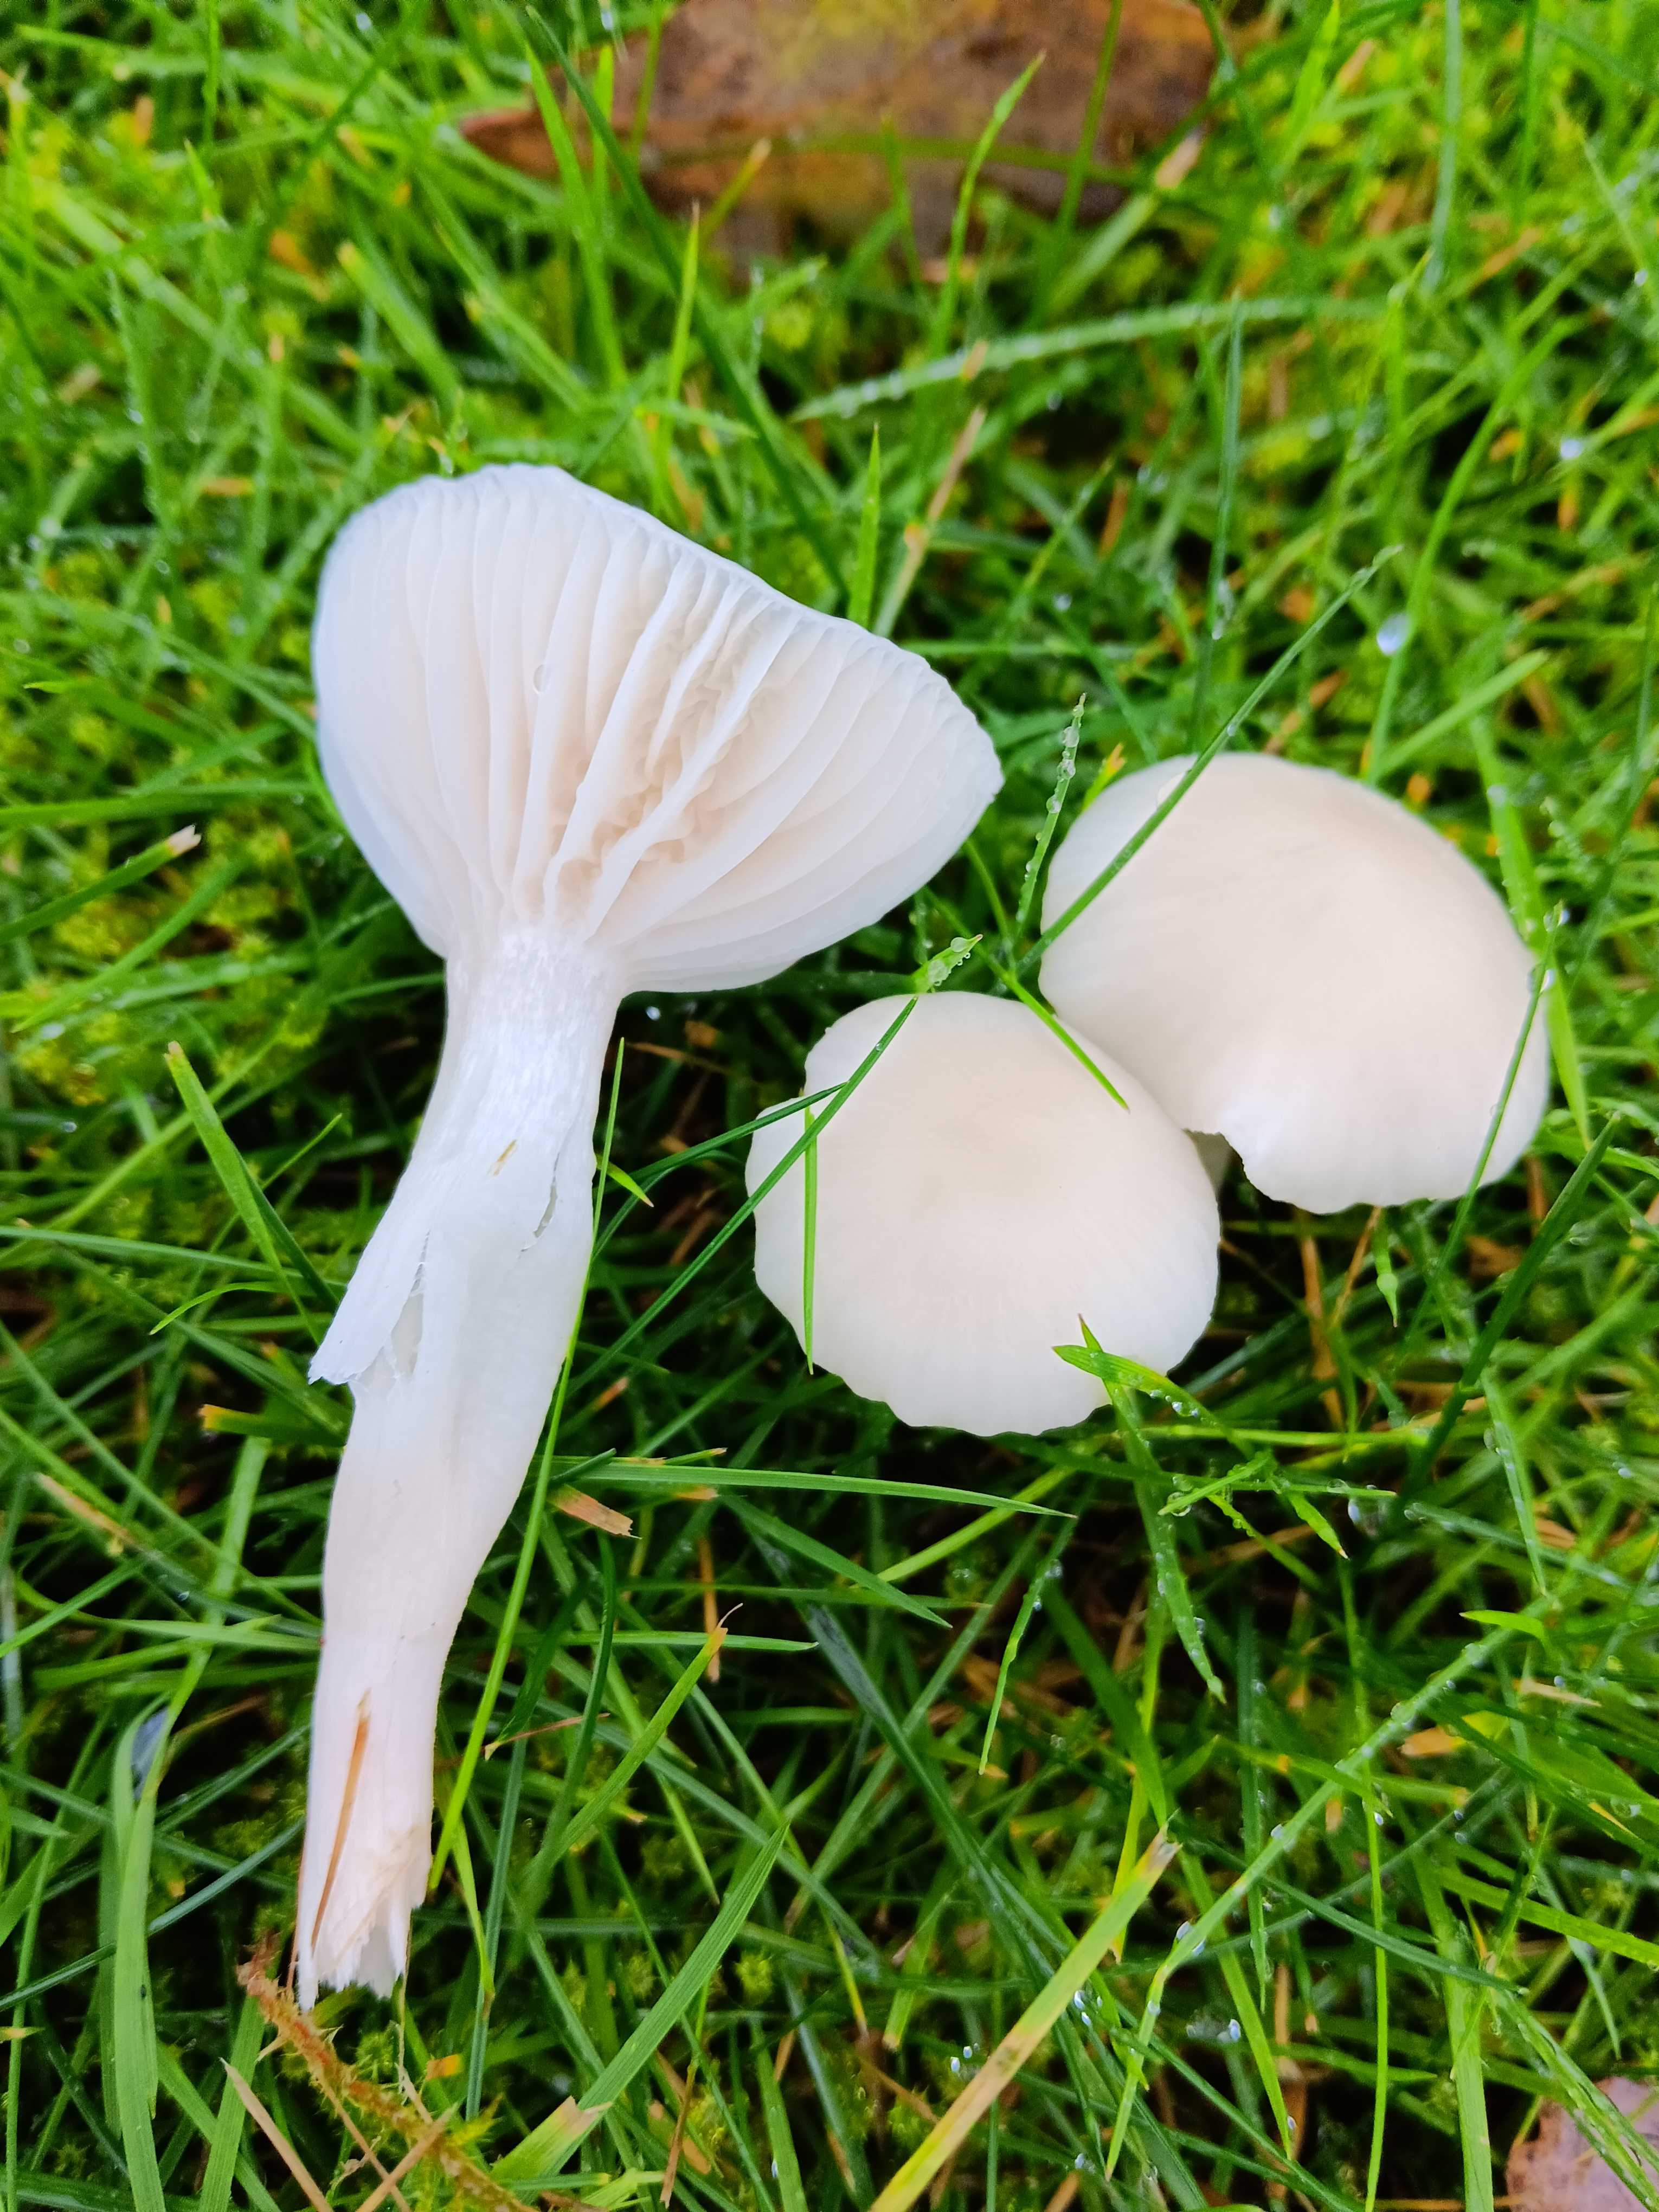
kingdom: Fungi
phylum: Basidiomycota
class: Agaricomycetes
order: Agaricales
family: Hygrophoraceae
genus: Cuphophyllus
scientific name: Cuphophyllus virgineus
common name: snehvid vokshat
